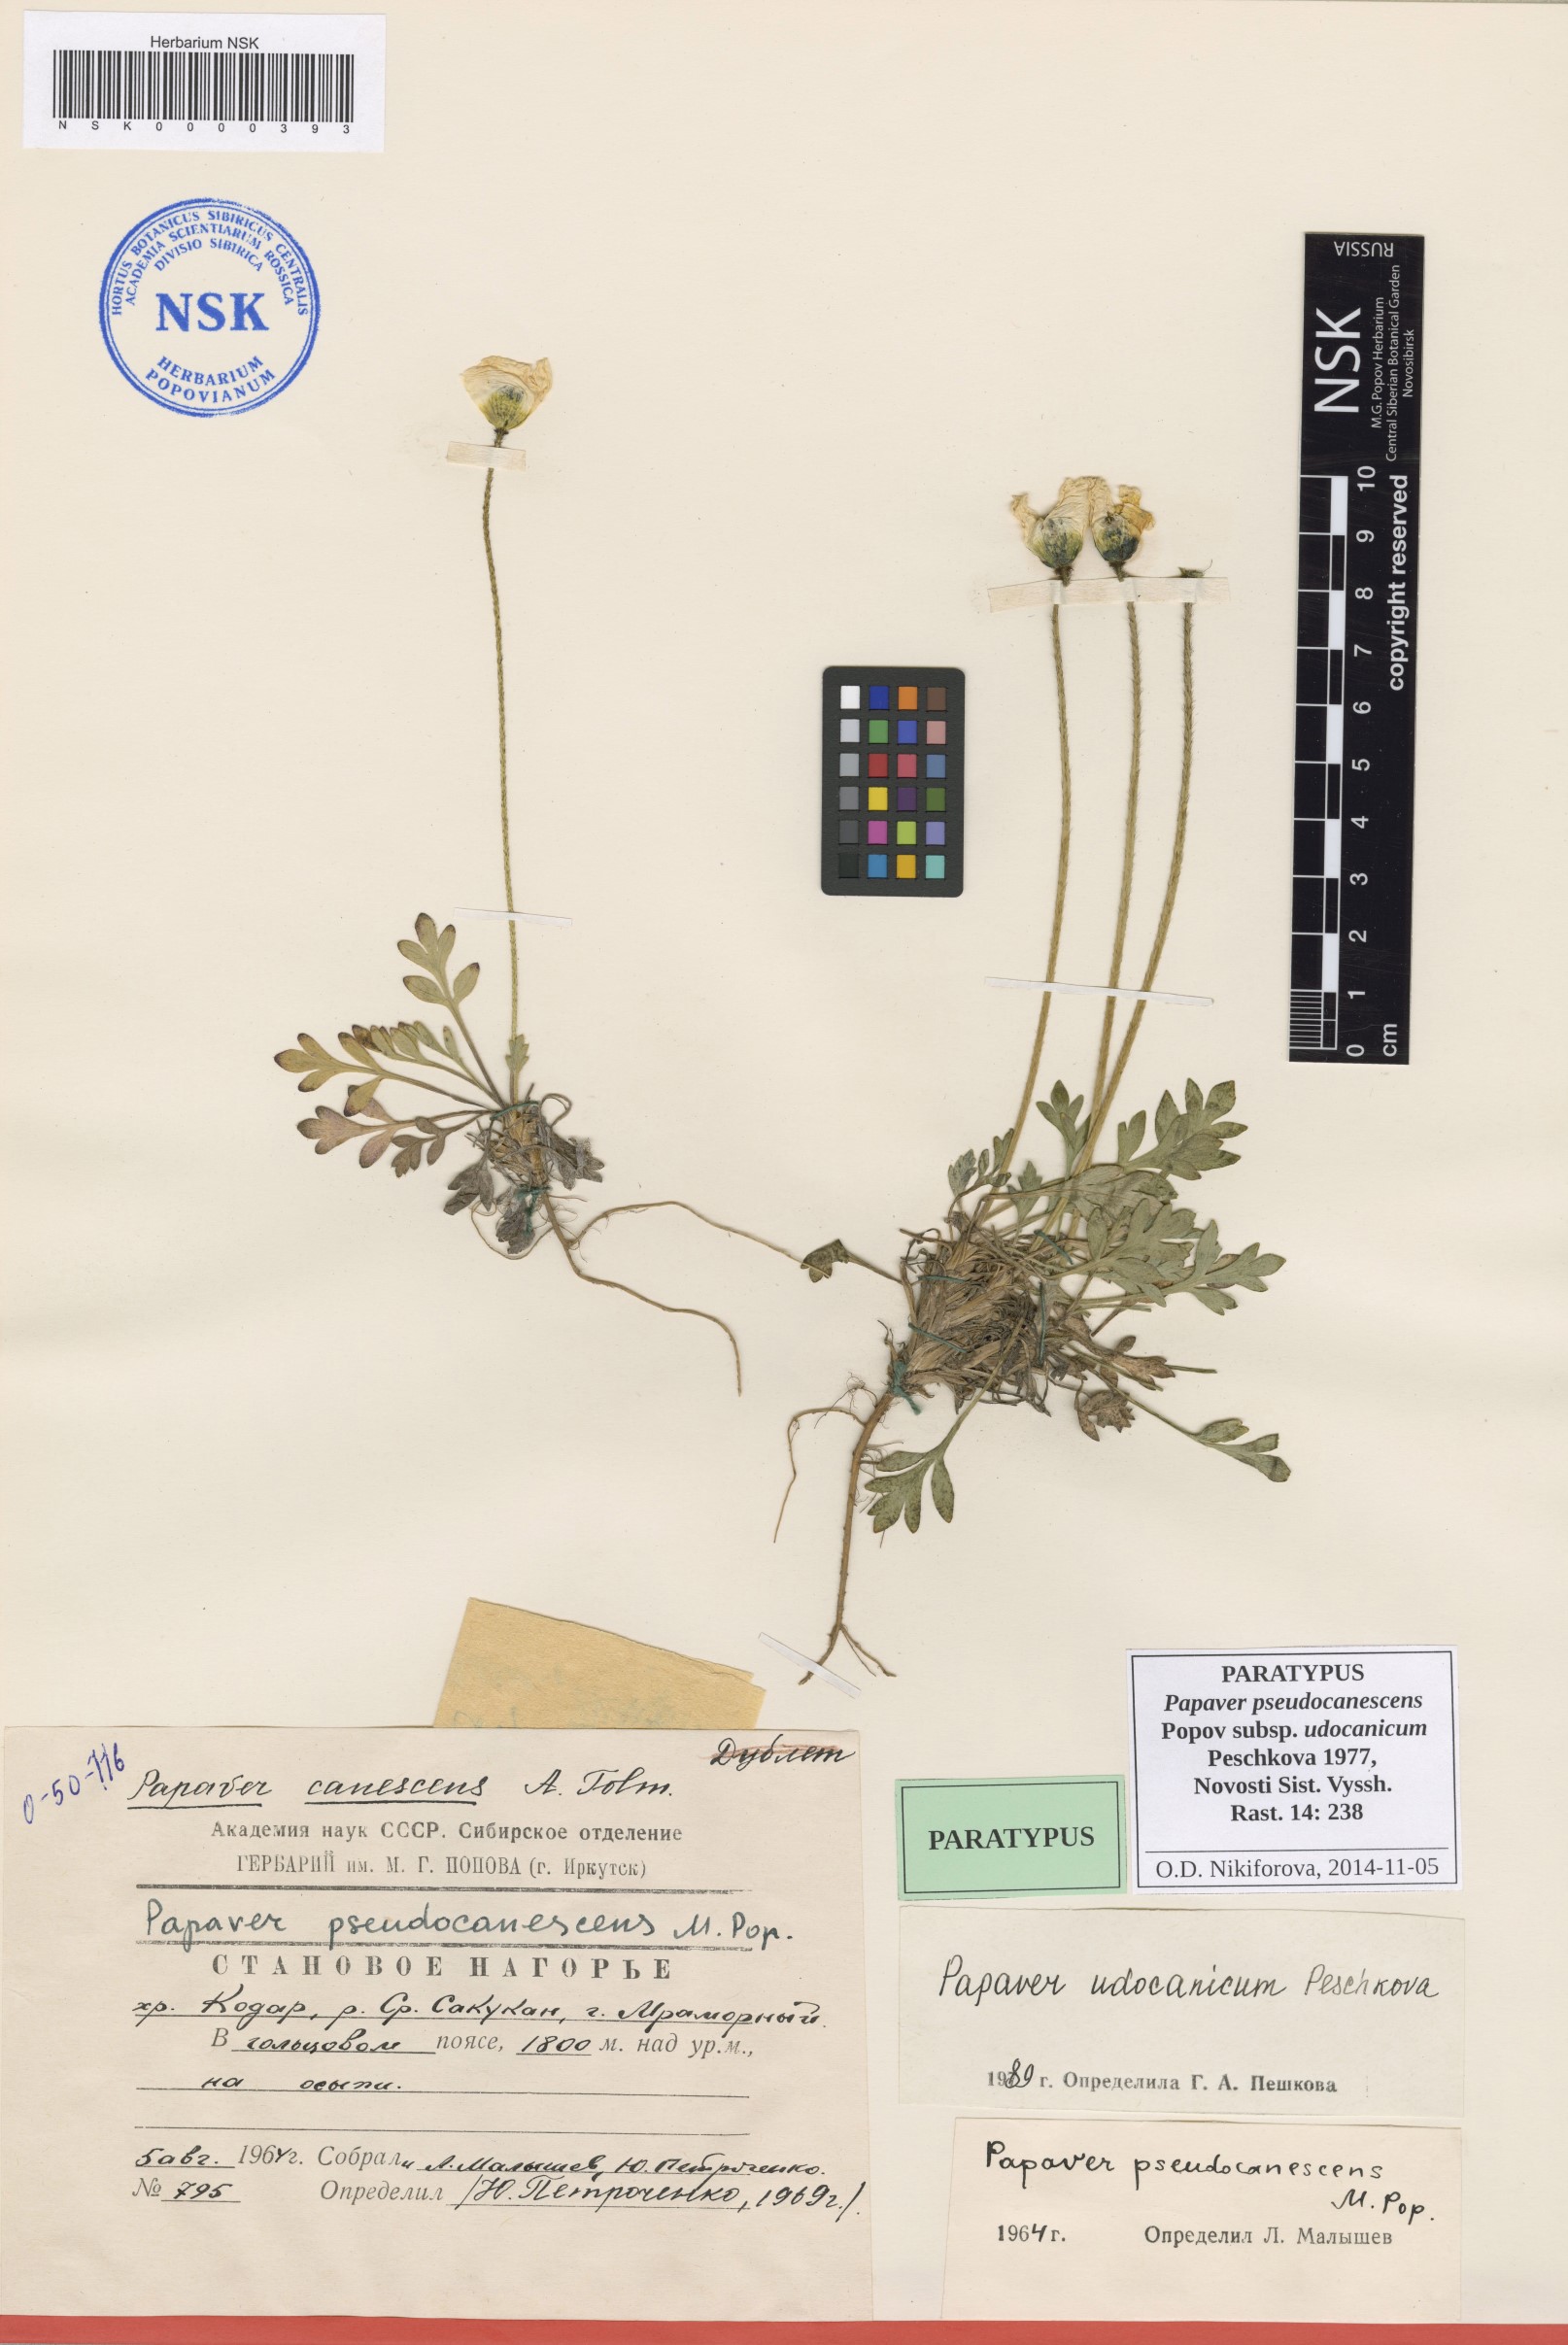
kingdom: Plantae
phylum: Tracheophyta
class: Magnoliopsida
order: Ranunculales
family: Papaveraceae
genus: Papaver
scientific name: Papaver udocanicum
